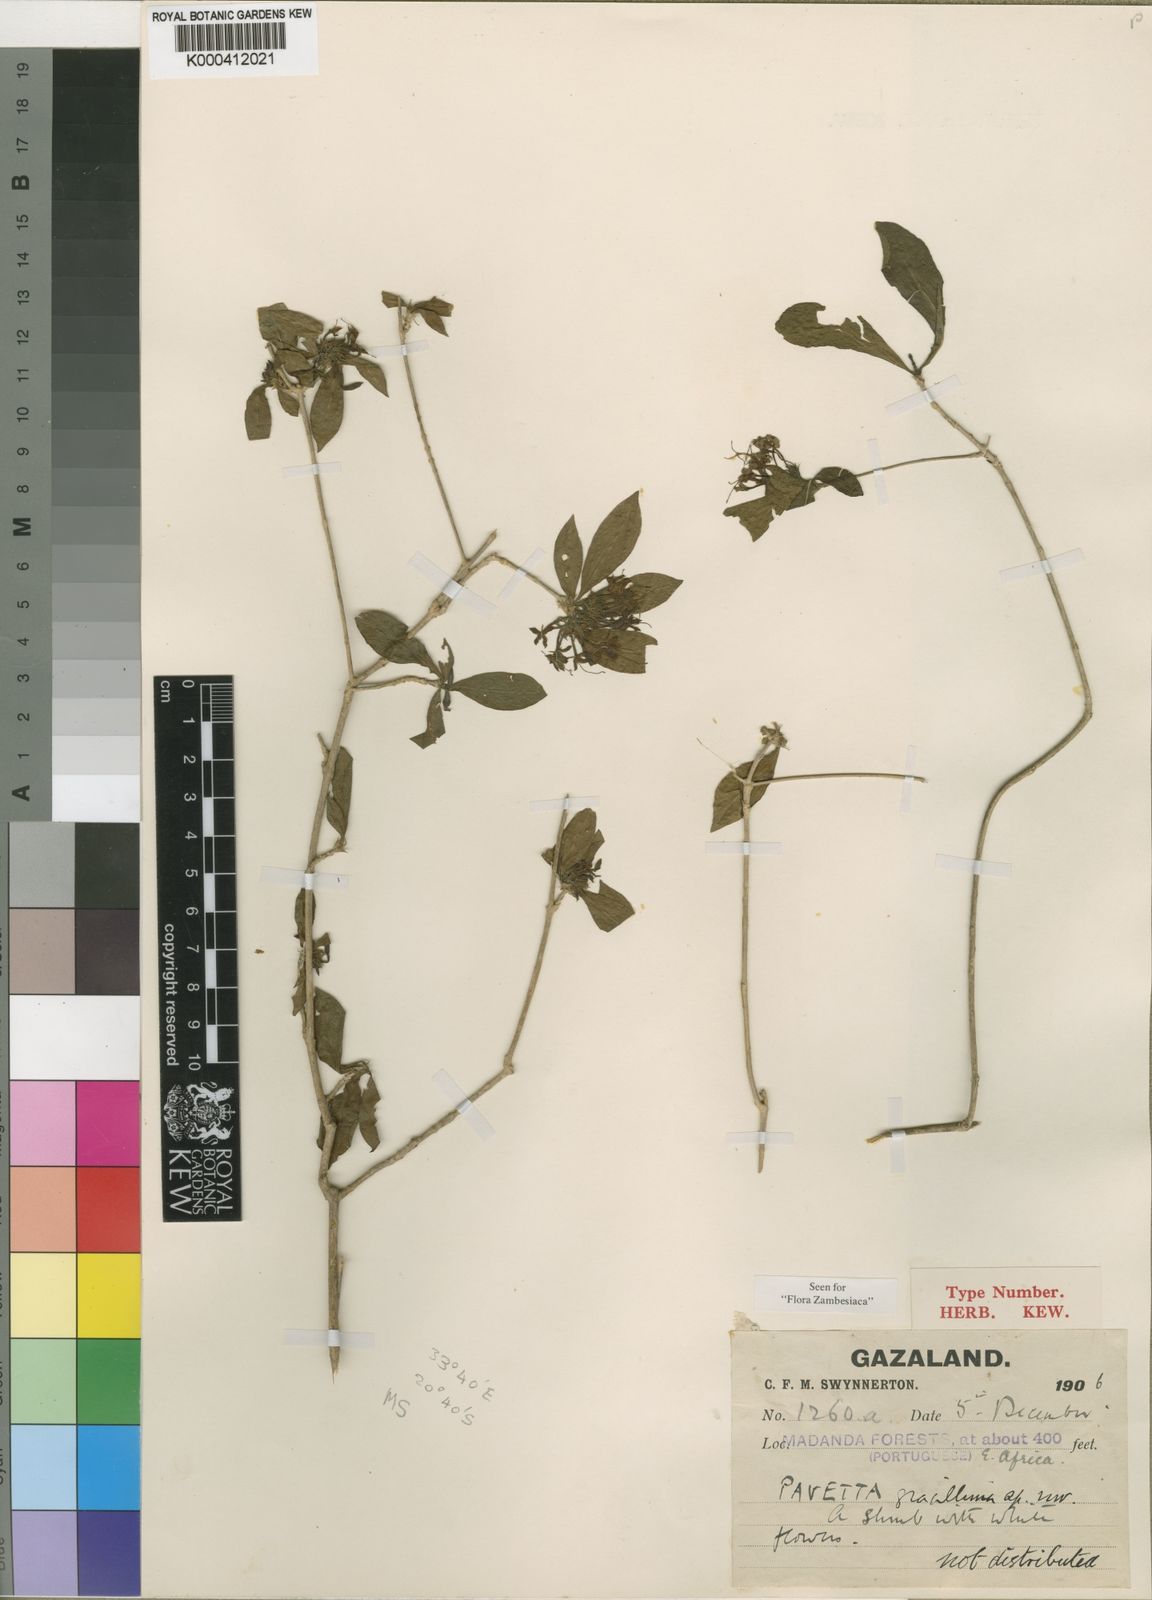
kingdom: Plantae
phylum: Tracheophyta
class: Magnoliopsida
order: Gentianales
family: Rubiaceae
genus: Pavetta
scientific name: Pavetta gracillima
